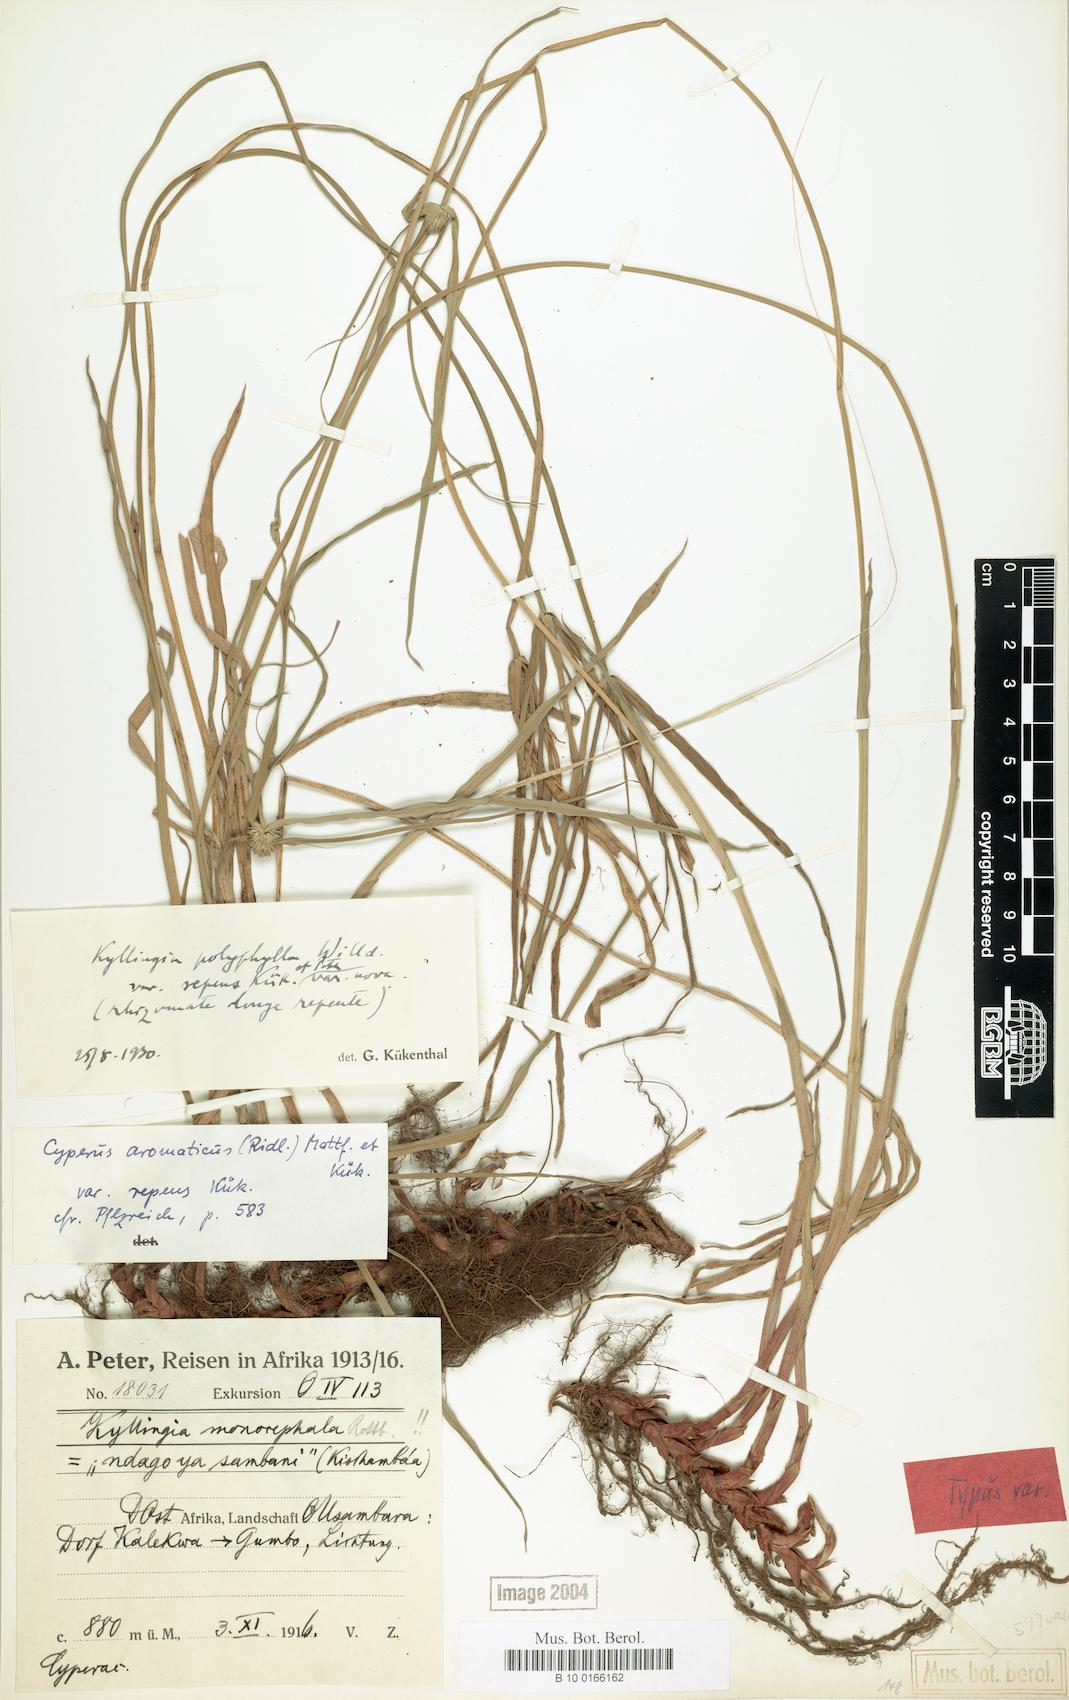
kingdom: Plantae
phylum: Tracheophyta
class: Liliopsida
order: Poales
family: Cyperaceae
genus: Cyperus
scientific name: Cyperus aromaticus
